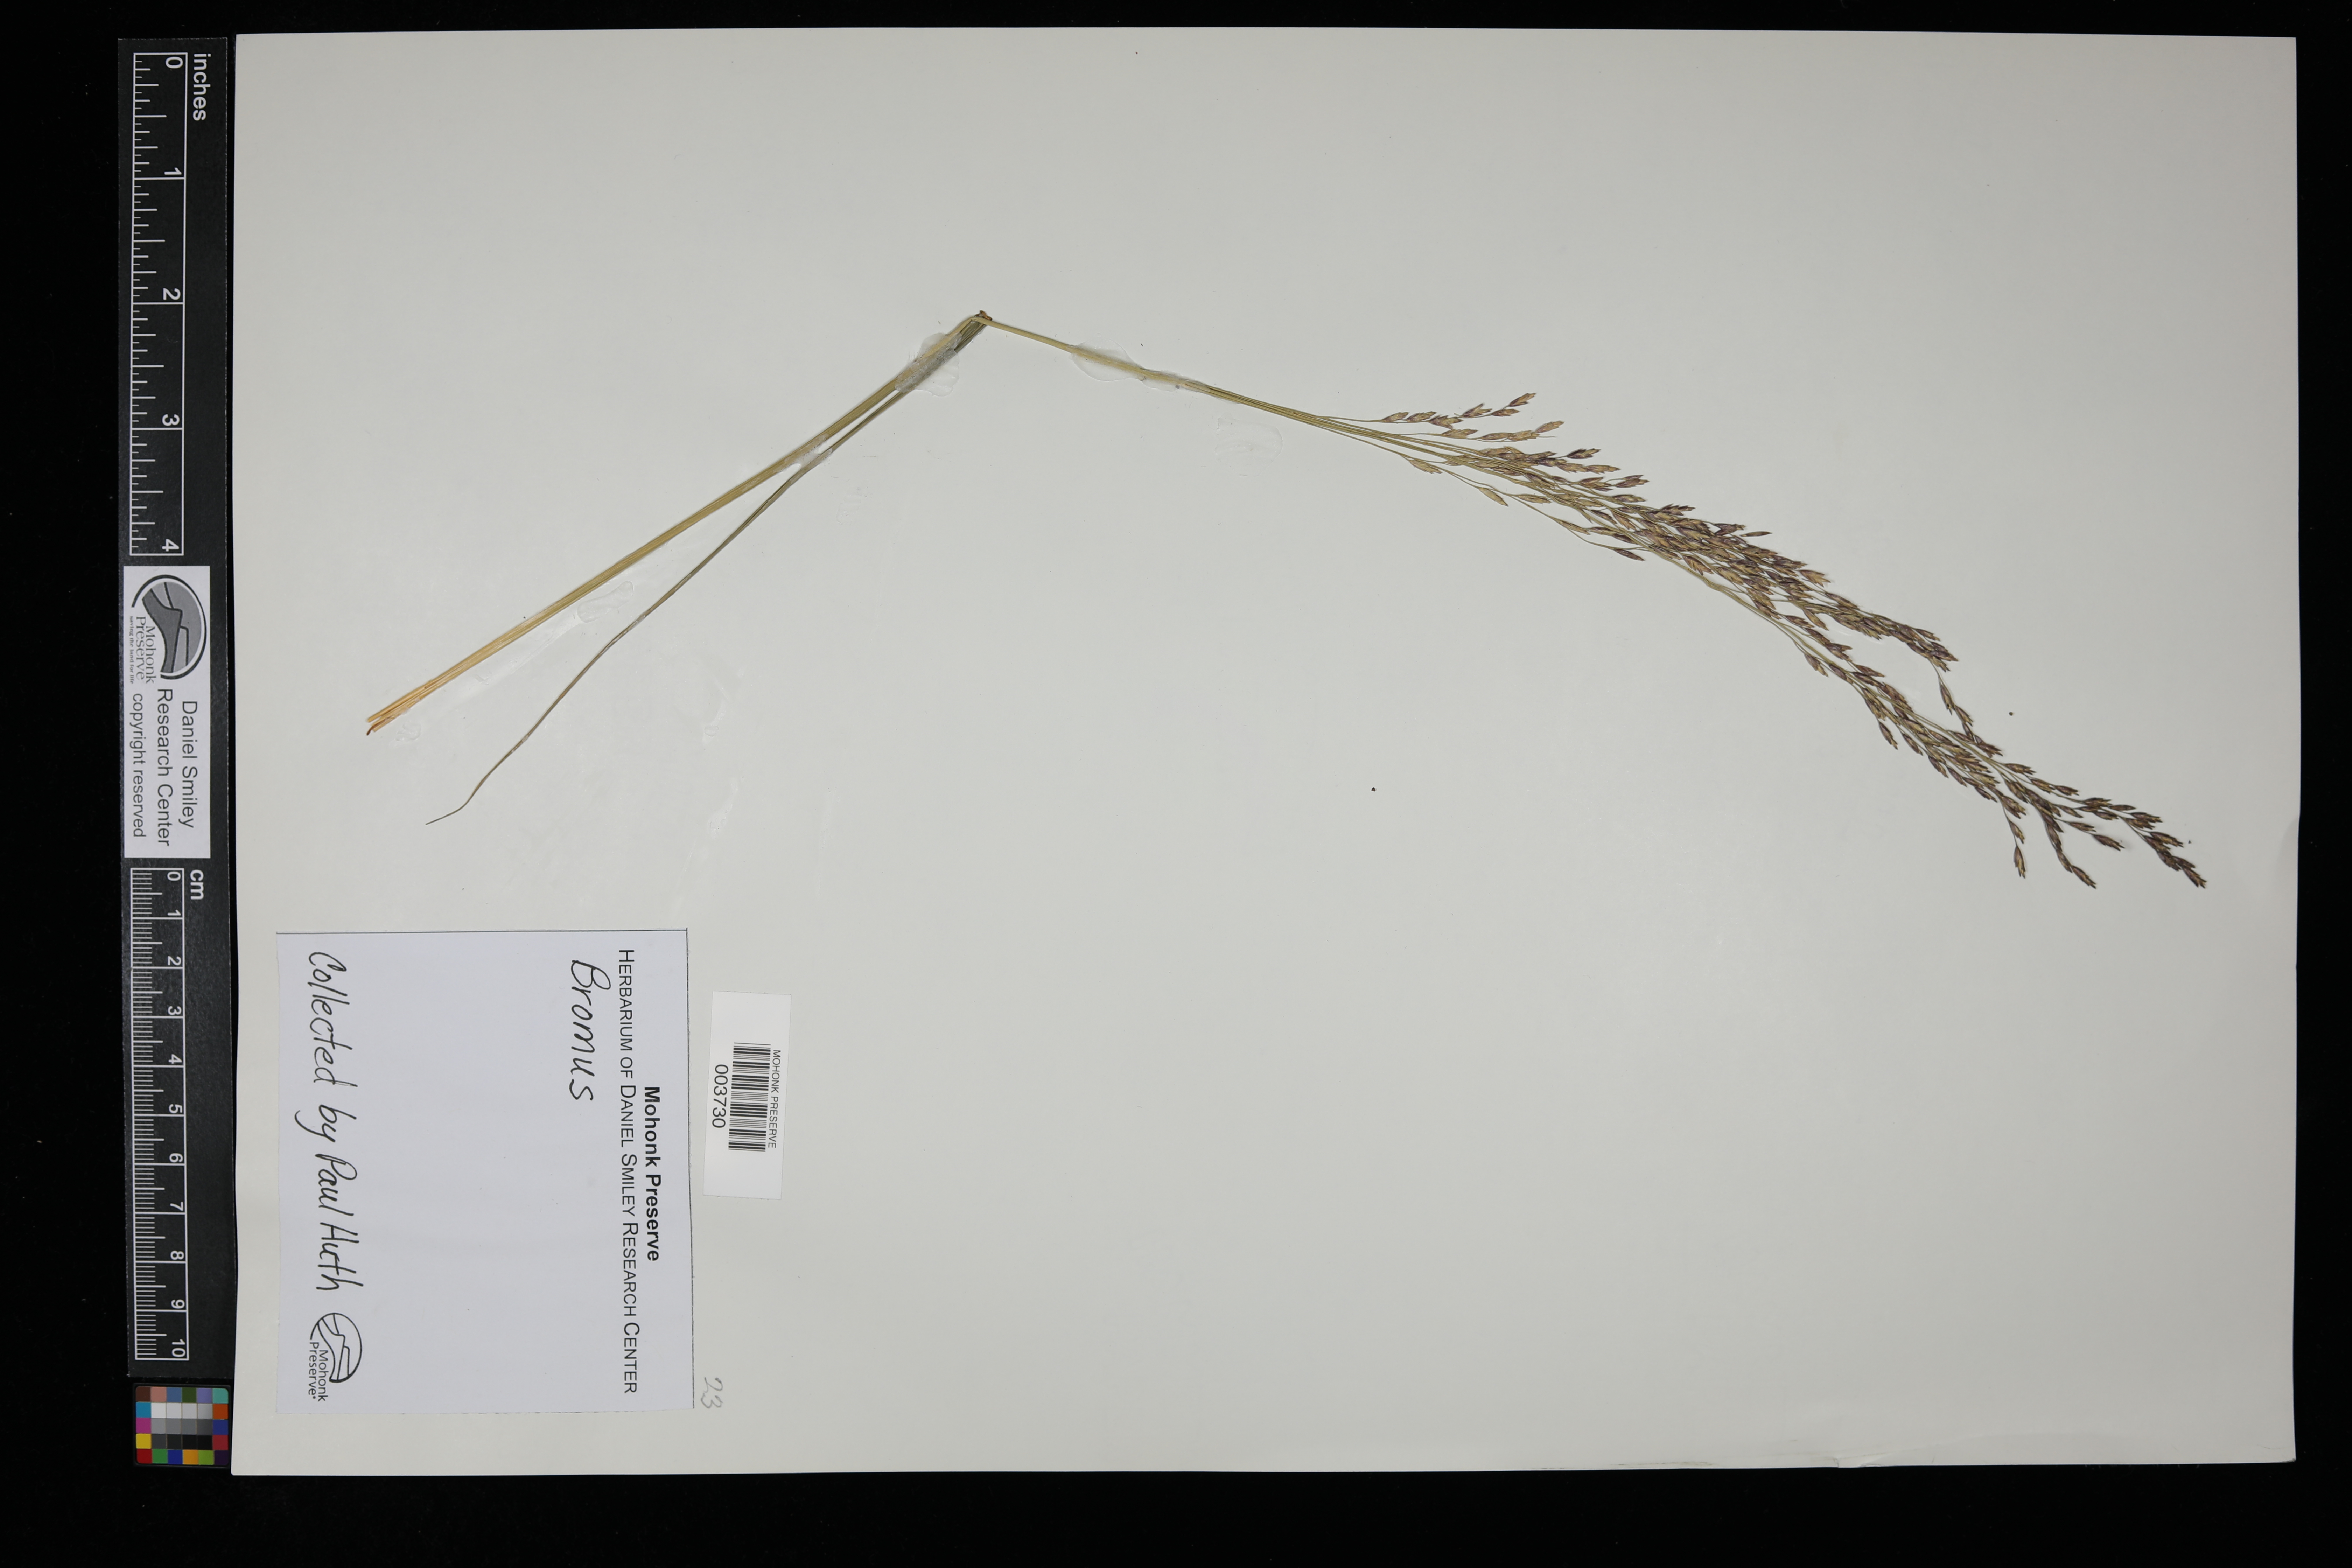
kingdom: Plantae
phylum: Tracheophyta
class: Liliopsida
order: Poales
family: Poaceae
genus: Bromus
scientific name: Bromus
